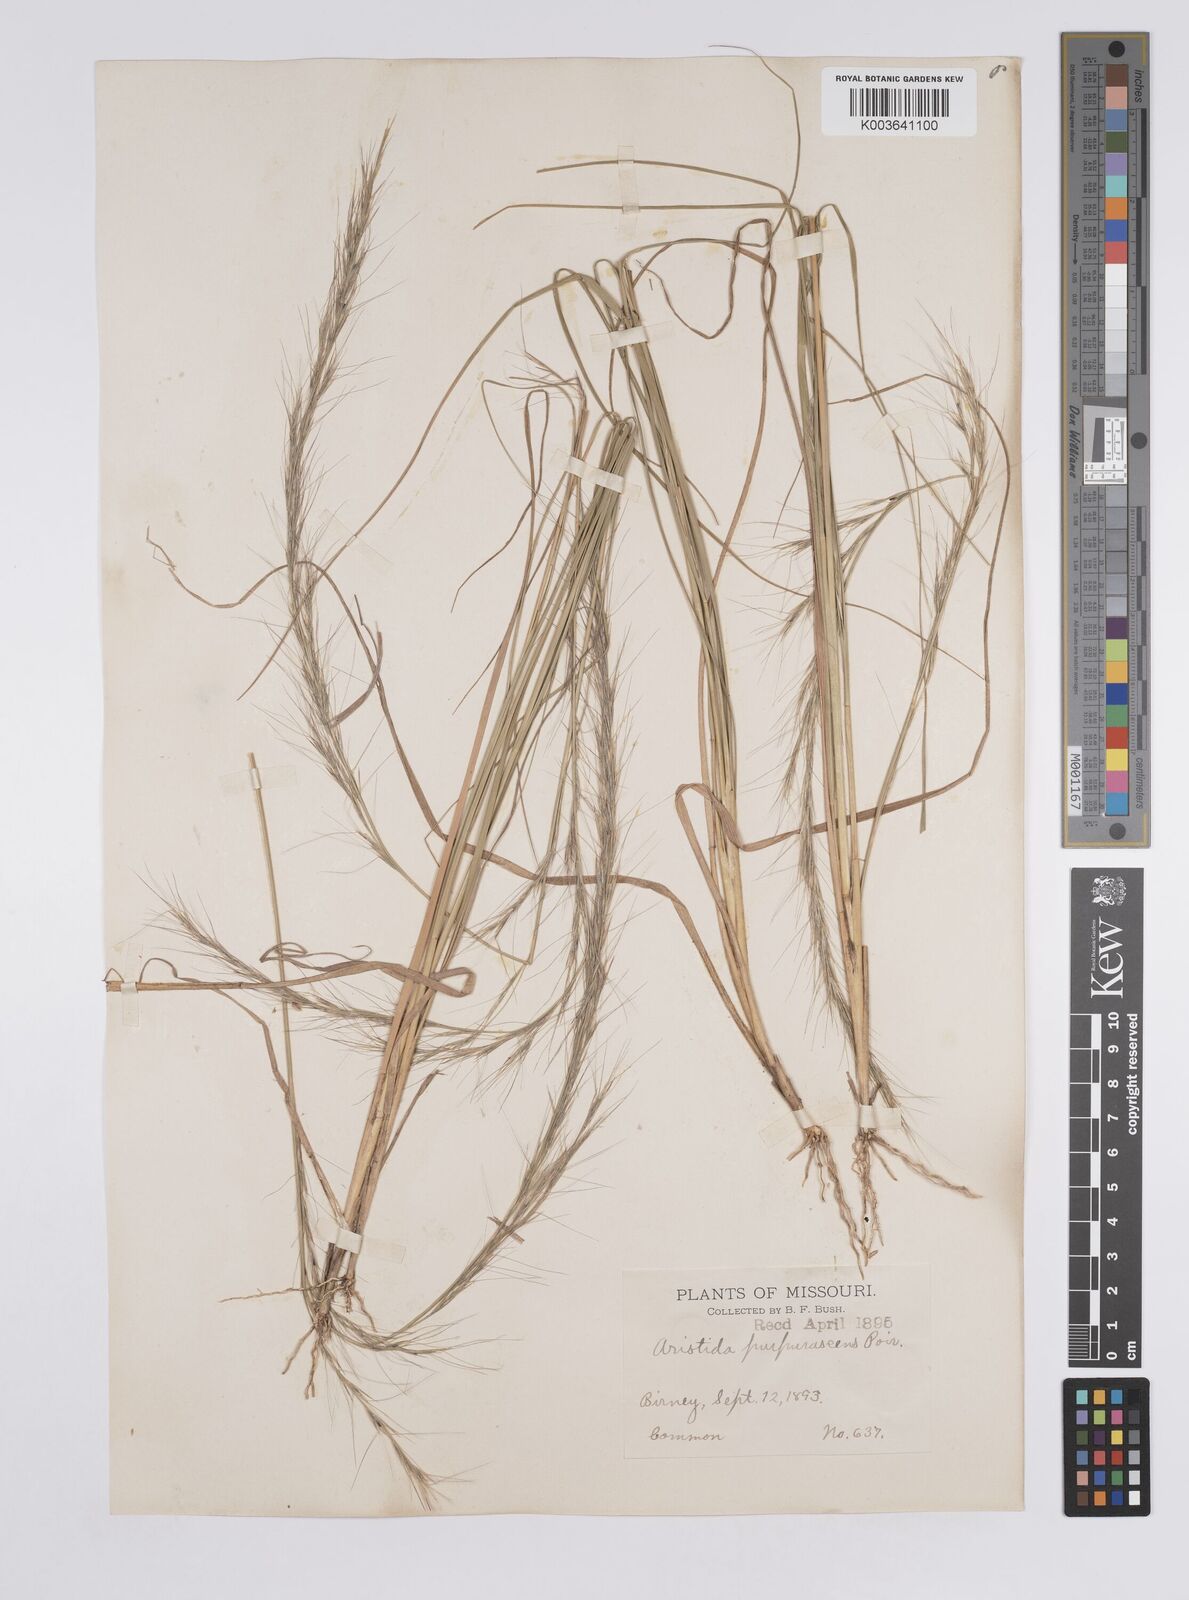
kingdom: Plantae
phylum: Tracheophyta
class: Liliopsida
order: Poales
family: Poaceae
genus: Aristida
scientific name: Aristida purpurascens
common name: Arrow-feather
